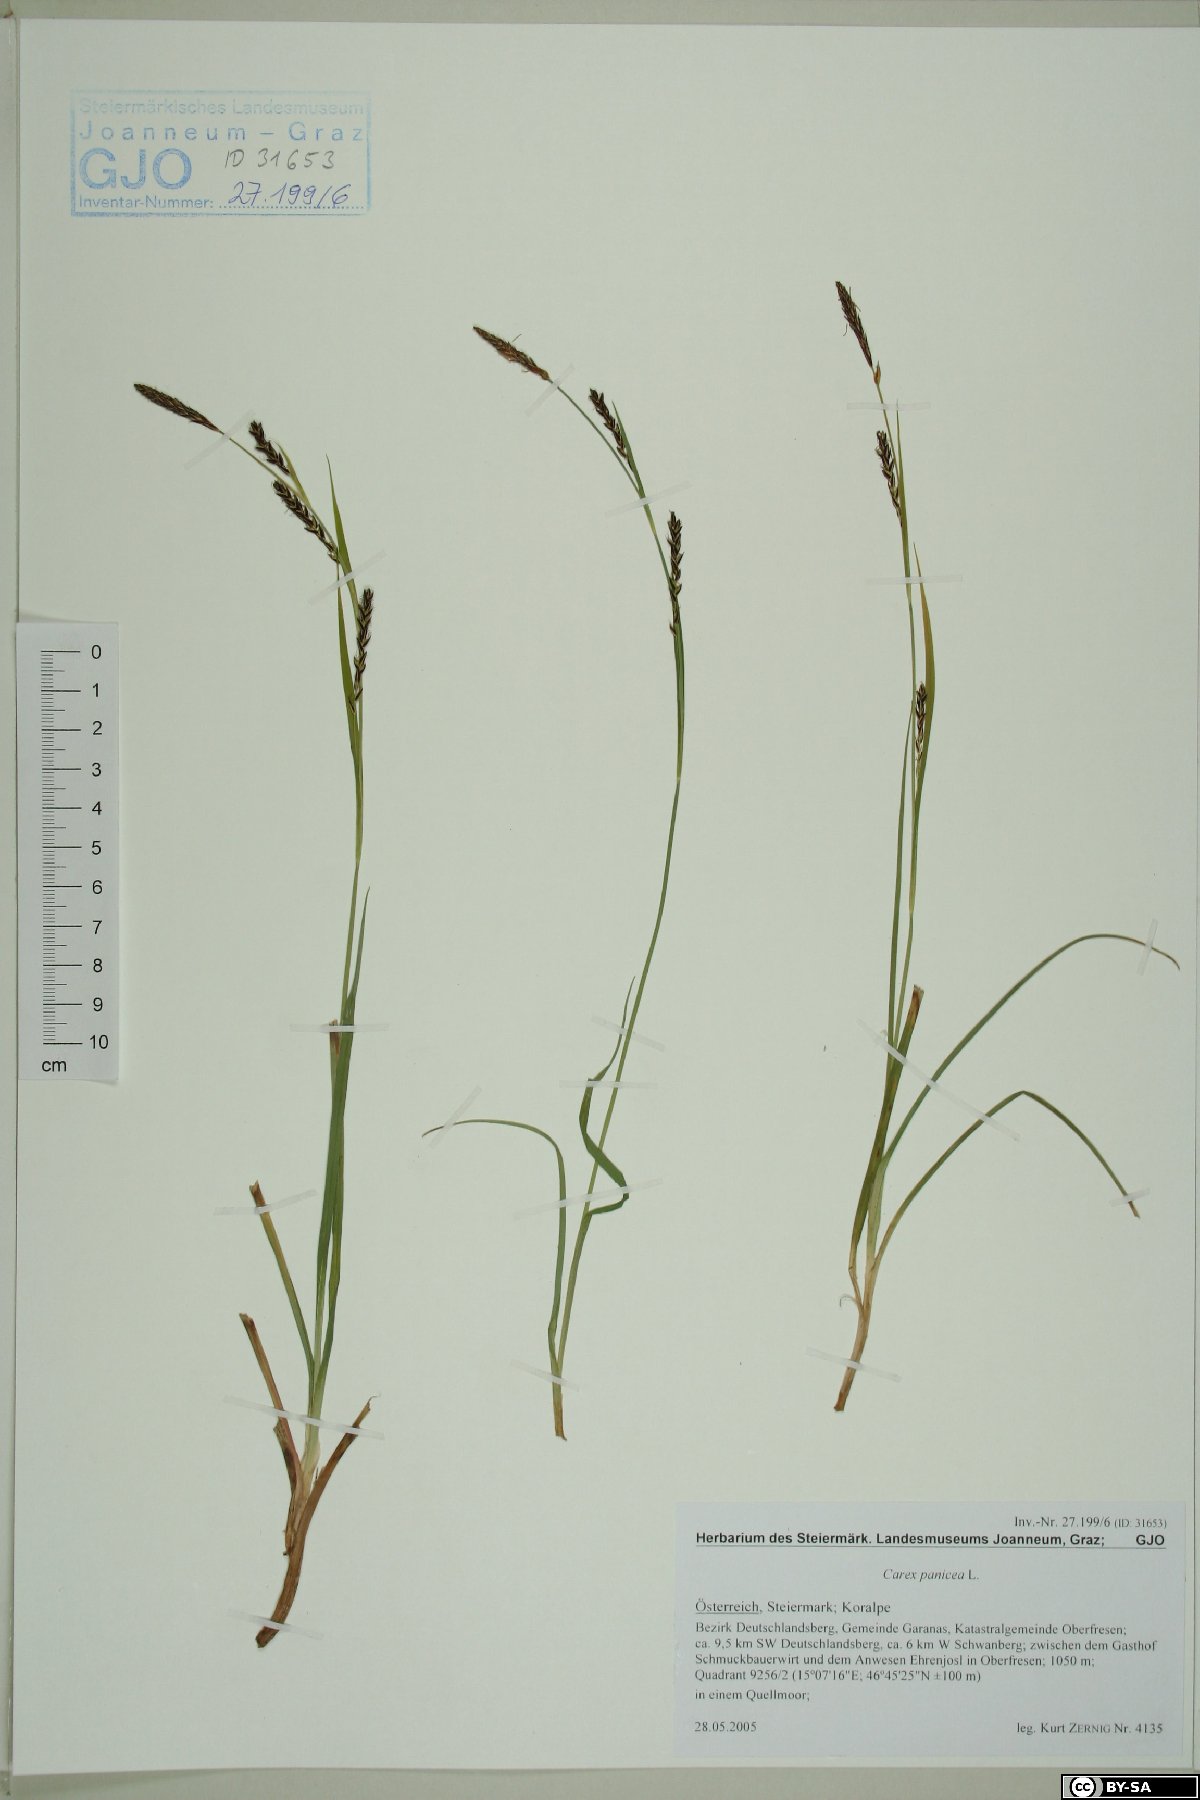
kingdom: Plantae
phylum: Tracheophyta
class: Liliopsida
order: Poales
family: Cyperaceae
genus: Carex
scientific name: Carex panicea
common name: Carnation sedge
